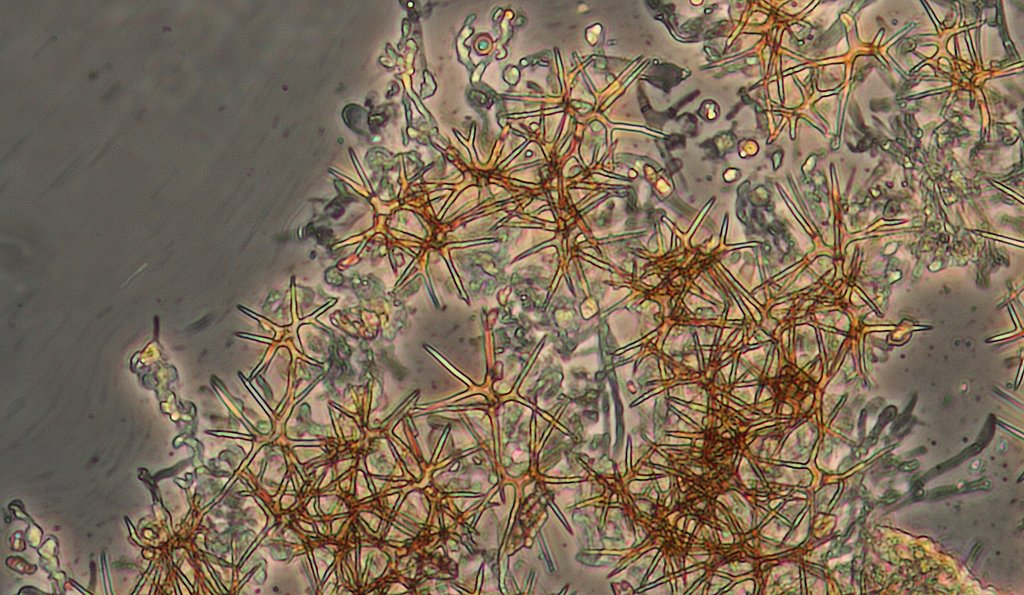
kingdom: Fungi
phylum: Basidiomycota
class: Agaricomycetes
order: Russulales
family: Peniophoraceae
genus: Asterostroma
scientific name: Asterostroma laxum
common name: lysrandet stjerneskind
